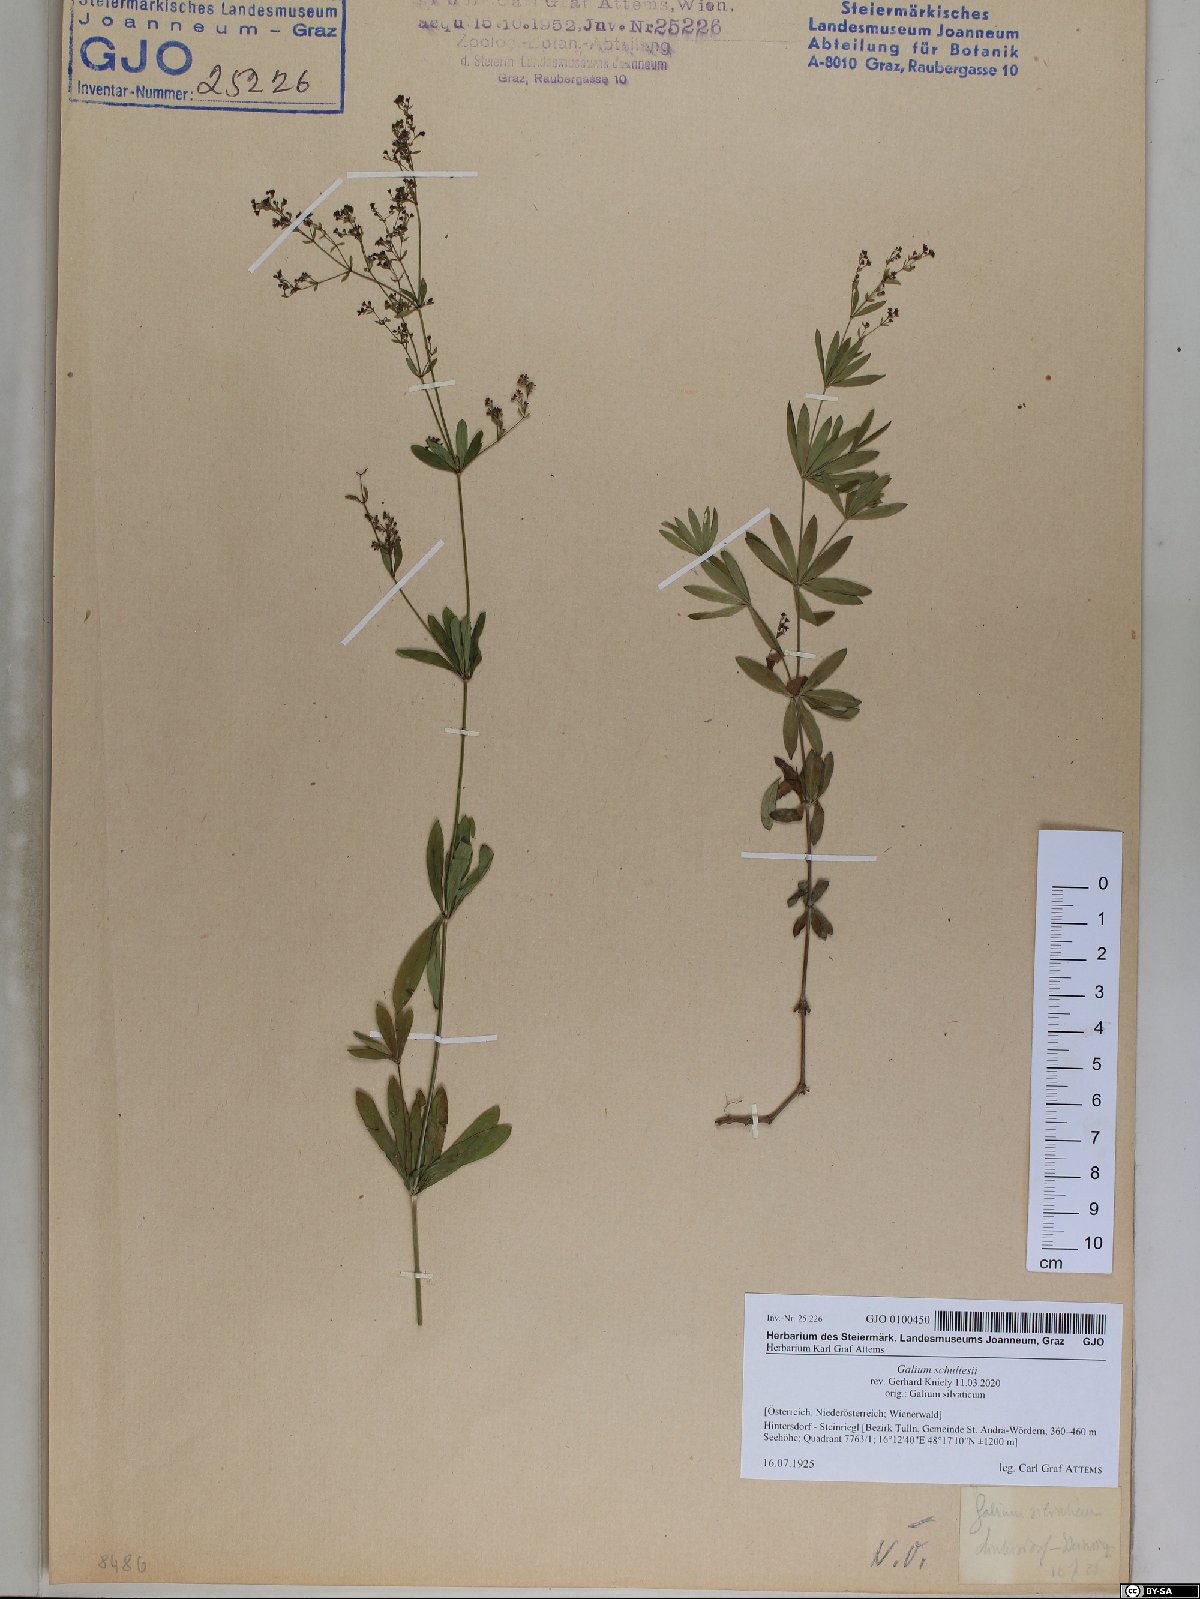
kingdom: Plantae
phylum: Tracheophyta
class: Magnoliopsida
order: Gentianales
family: Rubiaceae
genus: Galium
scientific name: Galium intermedium
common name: Bedstraw
